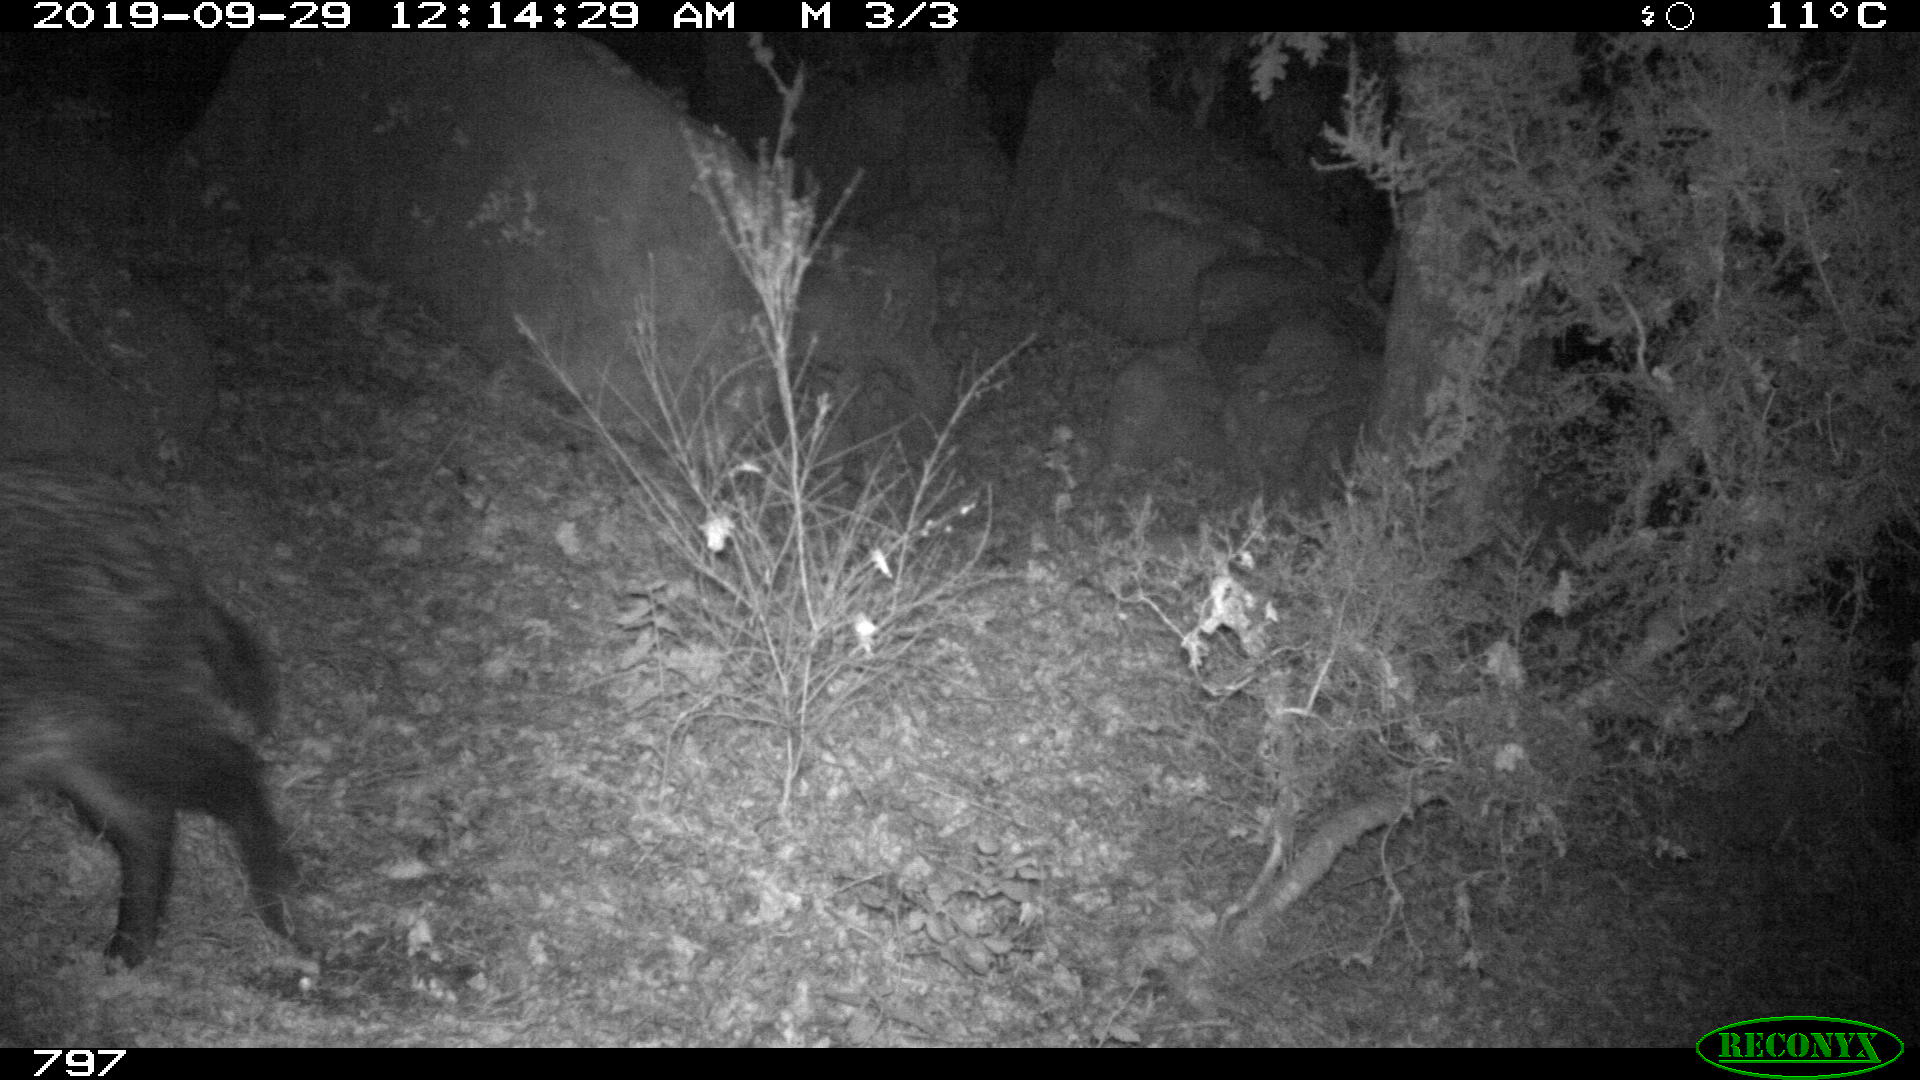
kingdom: Animalia
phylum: Chordata
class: Mammalia
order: Artiodactyla
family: Suidae
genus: Sus
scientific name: Sus scrofa
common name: Wild boar
